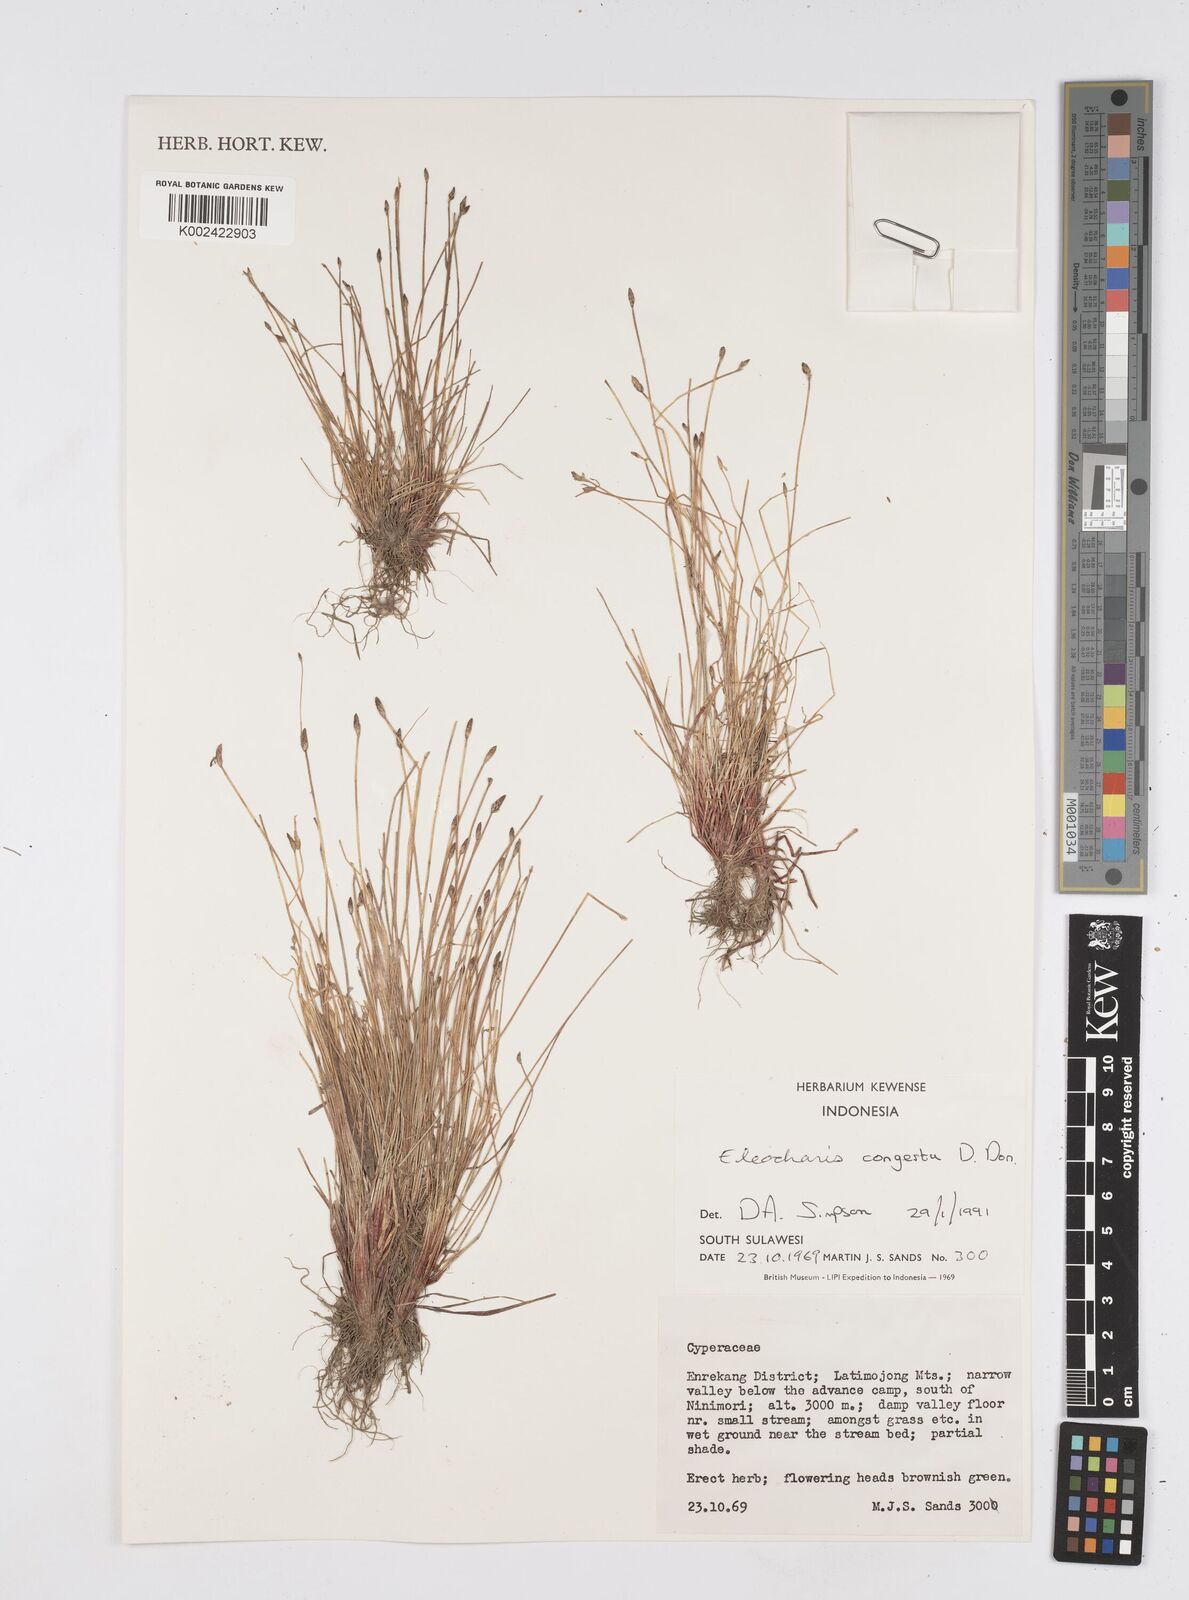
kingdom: Plantae
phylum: Tracheophyta
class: Liliopsida
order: Poales
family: Cyperaceae
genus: Eleocharis
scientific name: Eleocharis congesta
